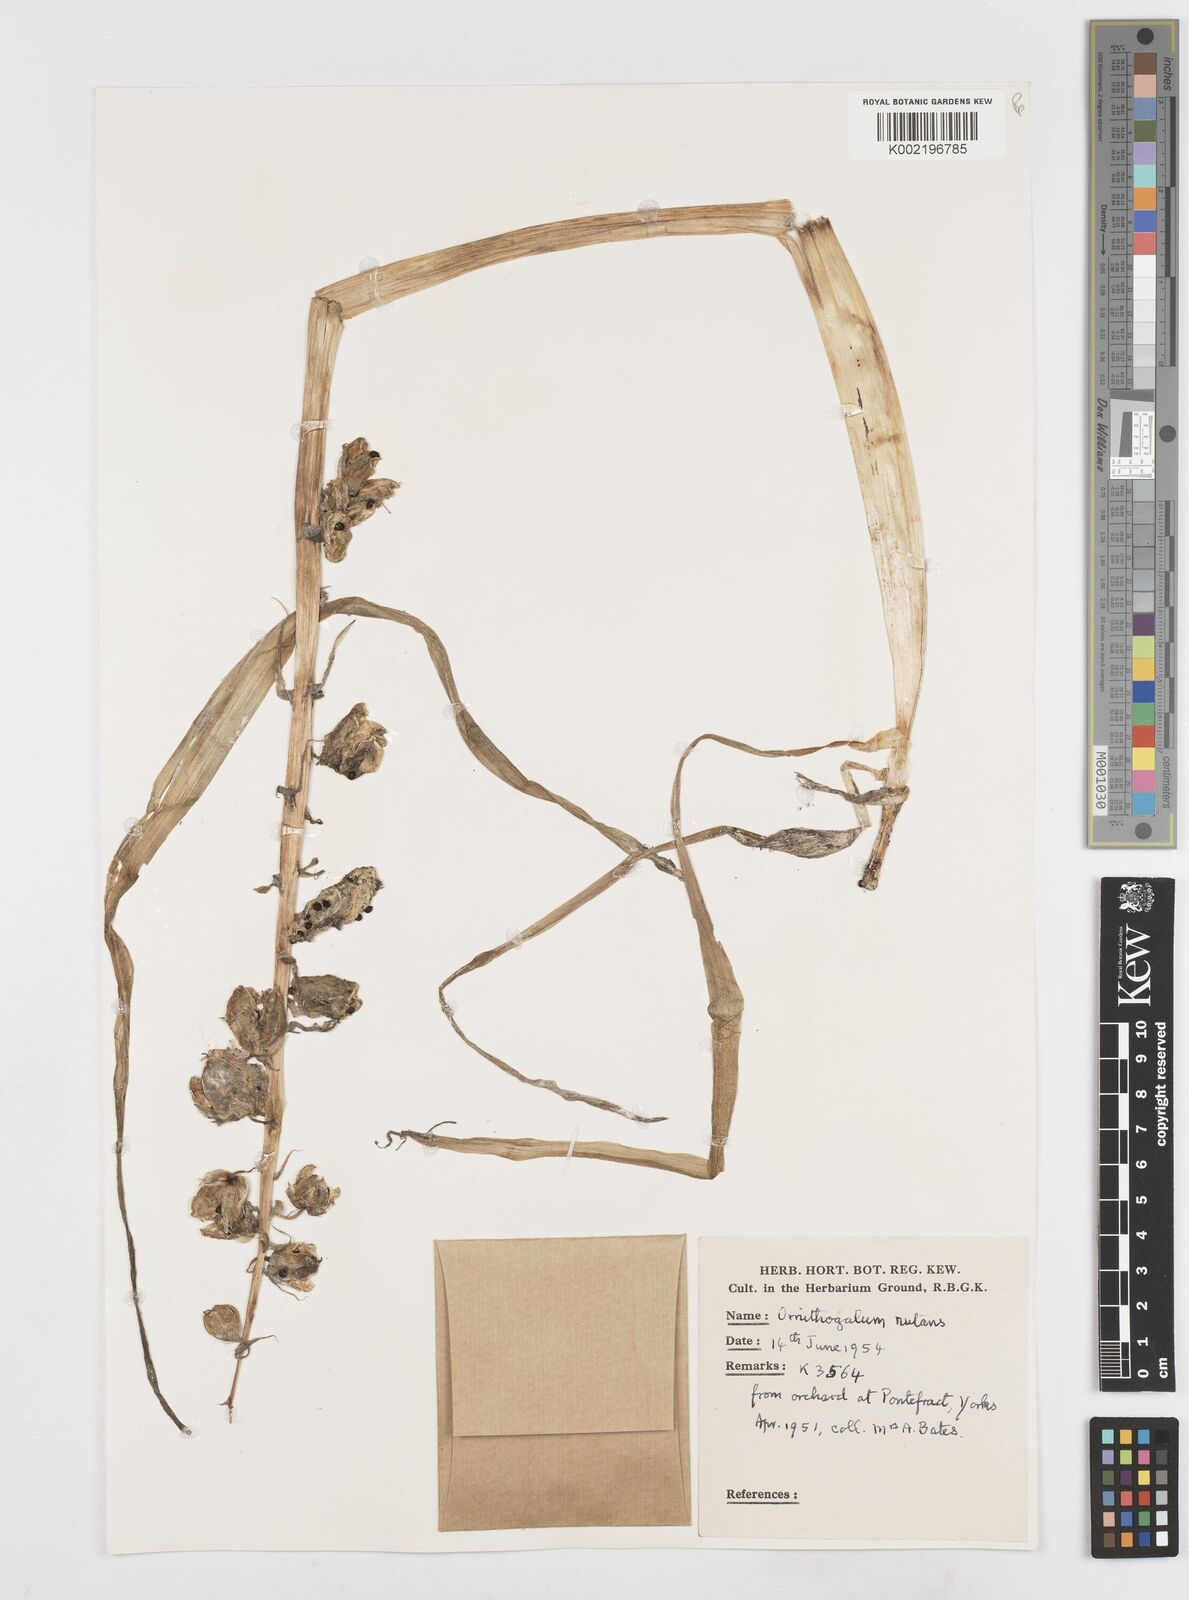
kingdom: Plantae
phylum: Tracheophyta
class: Liliopsida
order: Asparagales
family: Asparagaceae
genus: Ornithogalum
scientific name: Ornithogalum nutans
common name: Drooping star-of-bethlehem
